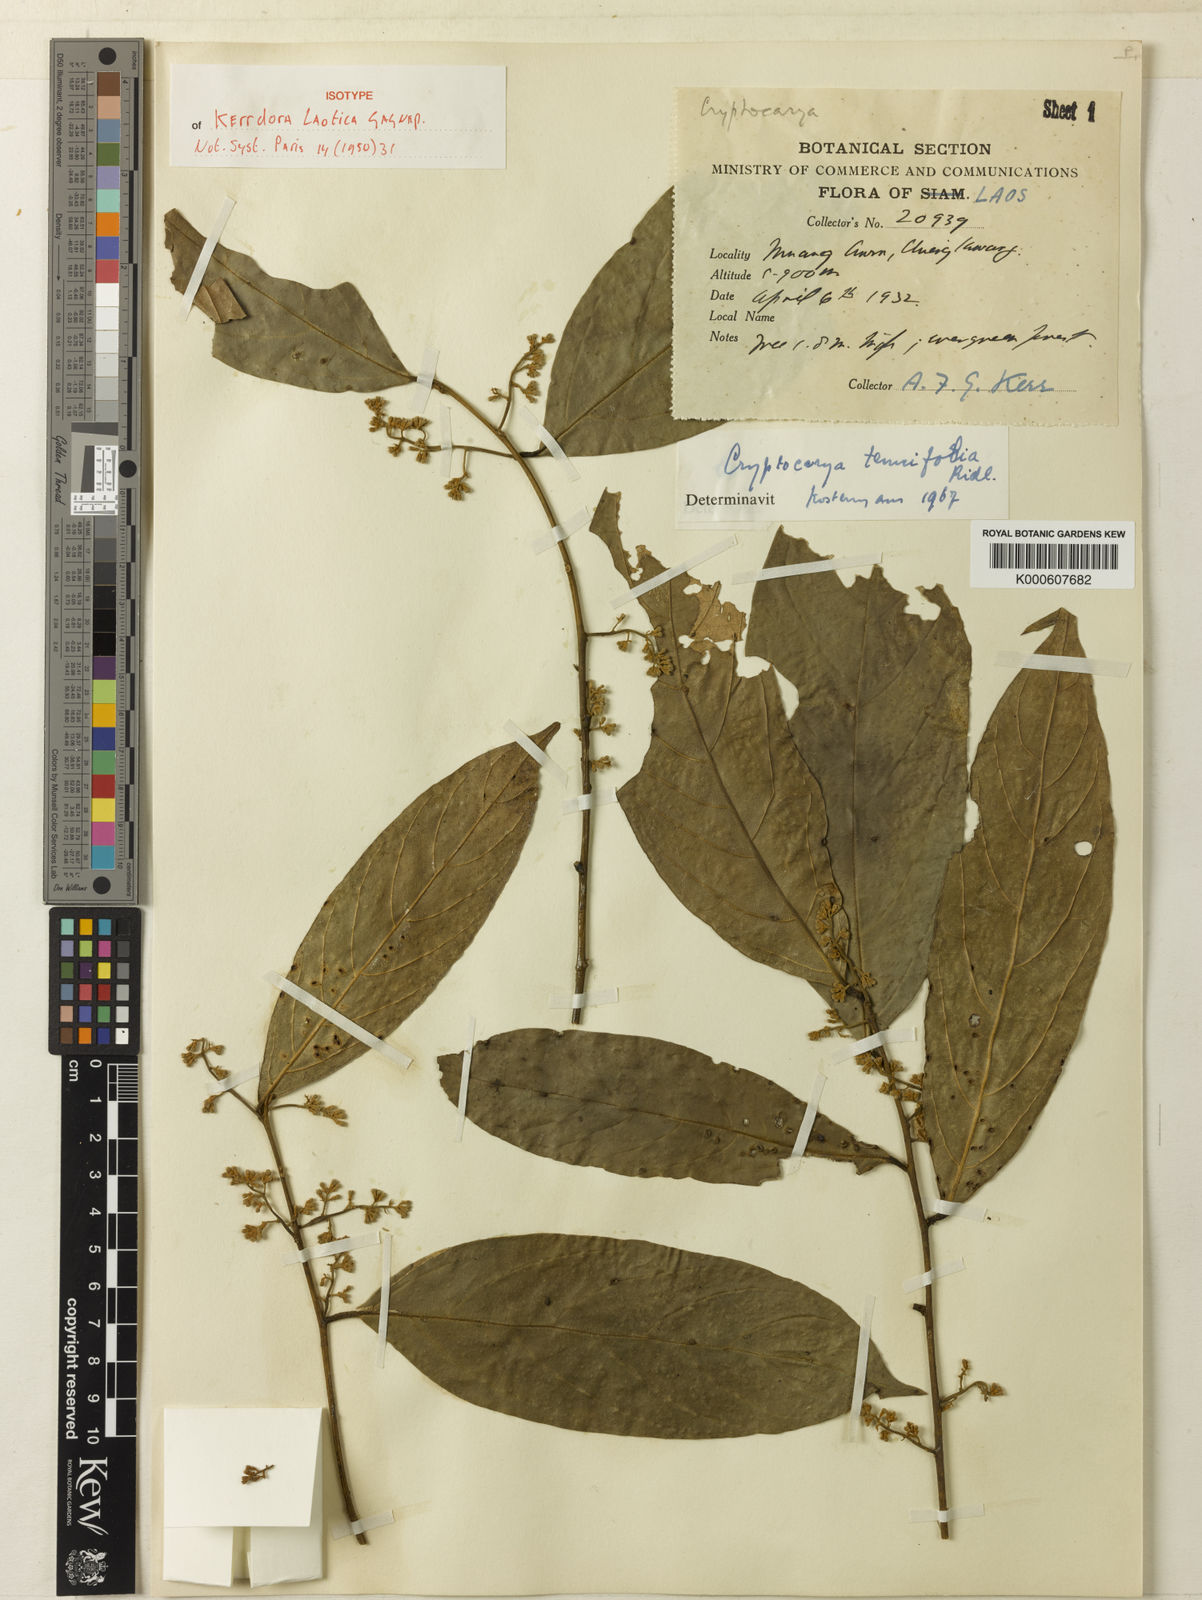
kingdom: Plantae
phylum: Tracheophyta
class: Magnoliopsida
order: Laurales
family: Lauraceae
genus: Cryptocarya
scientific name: Cryptocarya laotica
